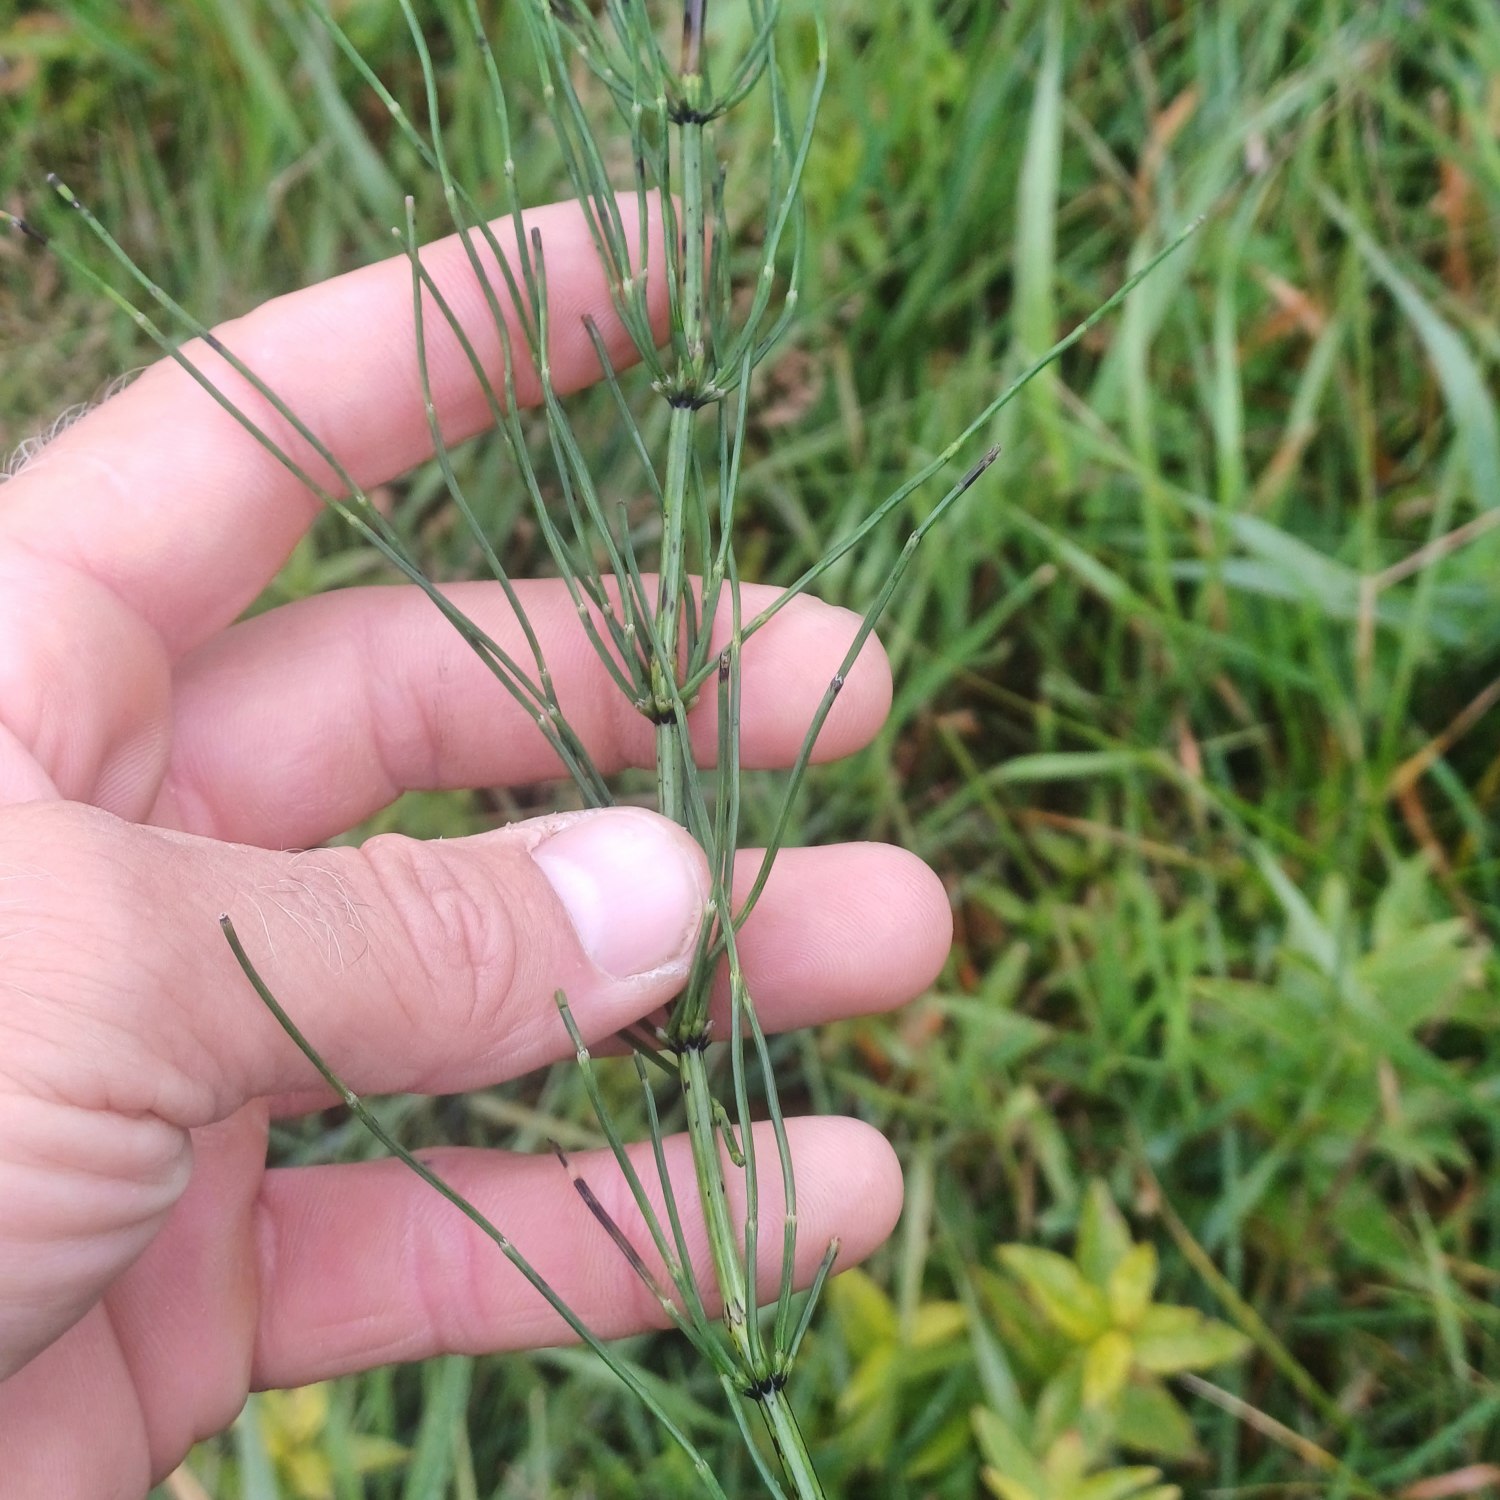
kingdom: Plantae
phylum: Tracheophyta
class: Polypodiopsida
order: Equisetales
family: Equisetaceae
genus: Equisetum
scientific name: Equisetum palustre
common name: Kær-padderok
